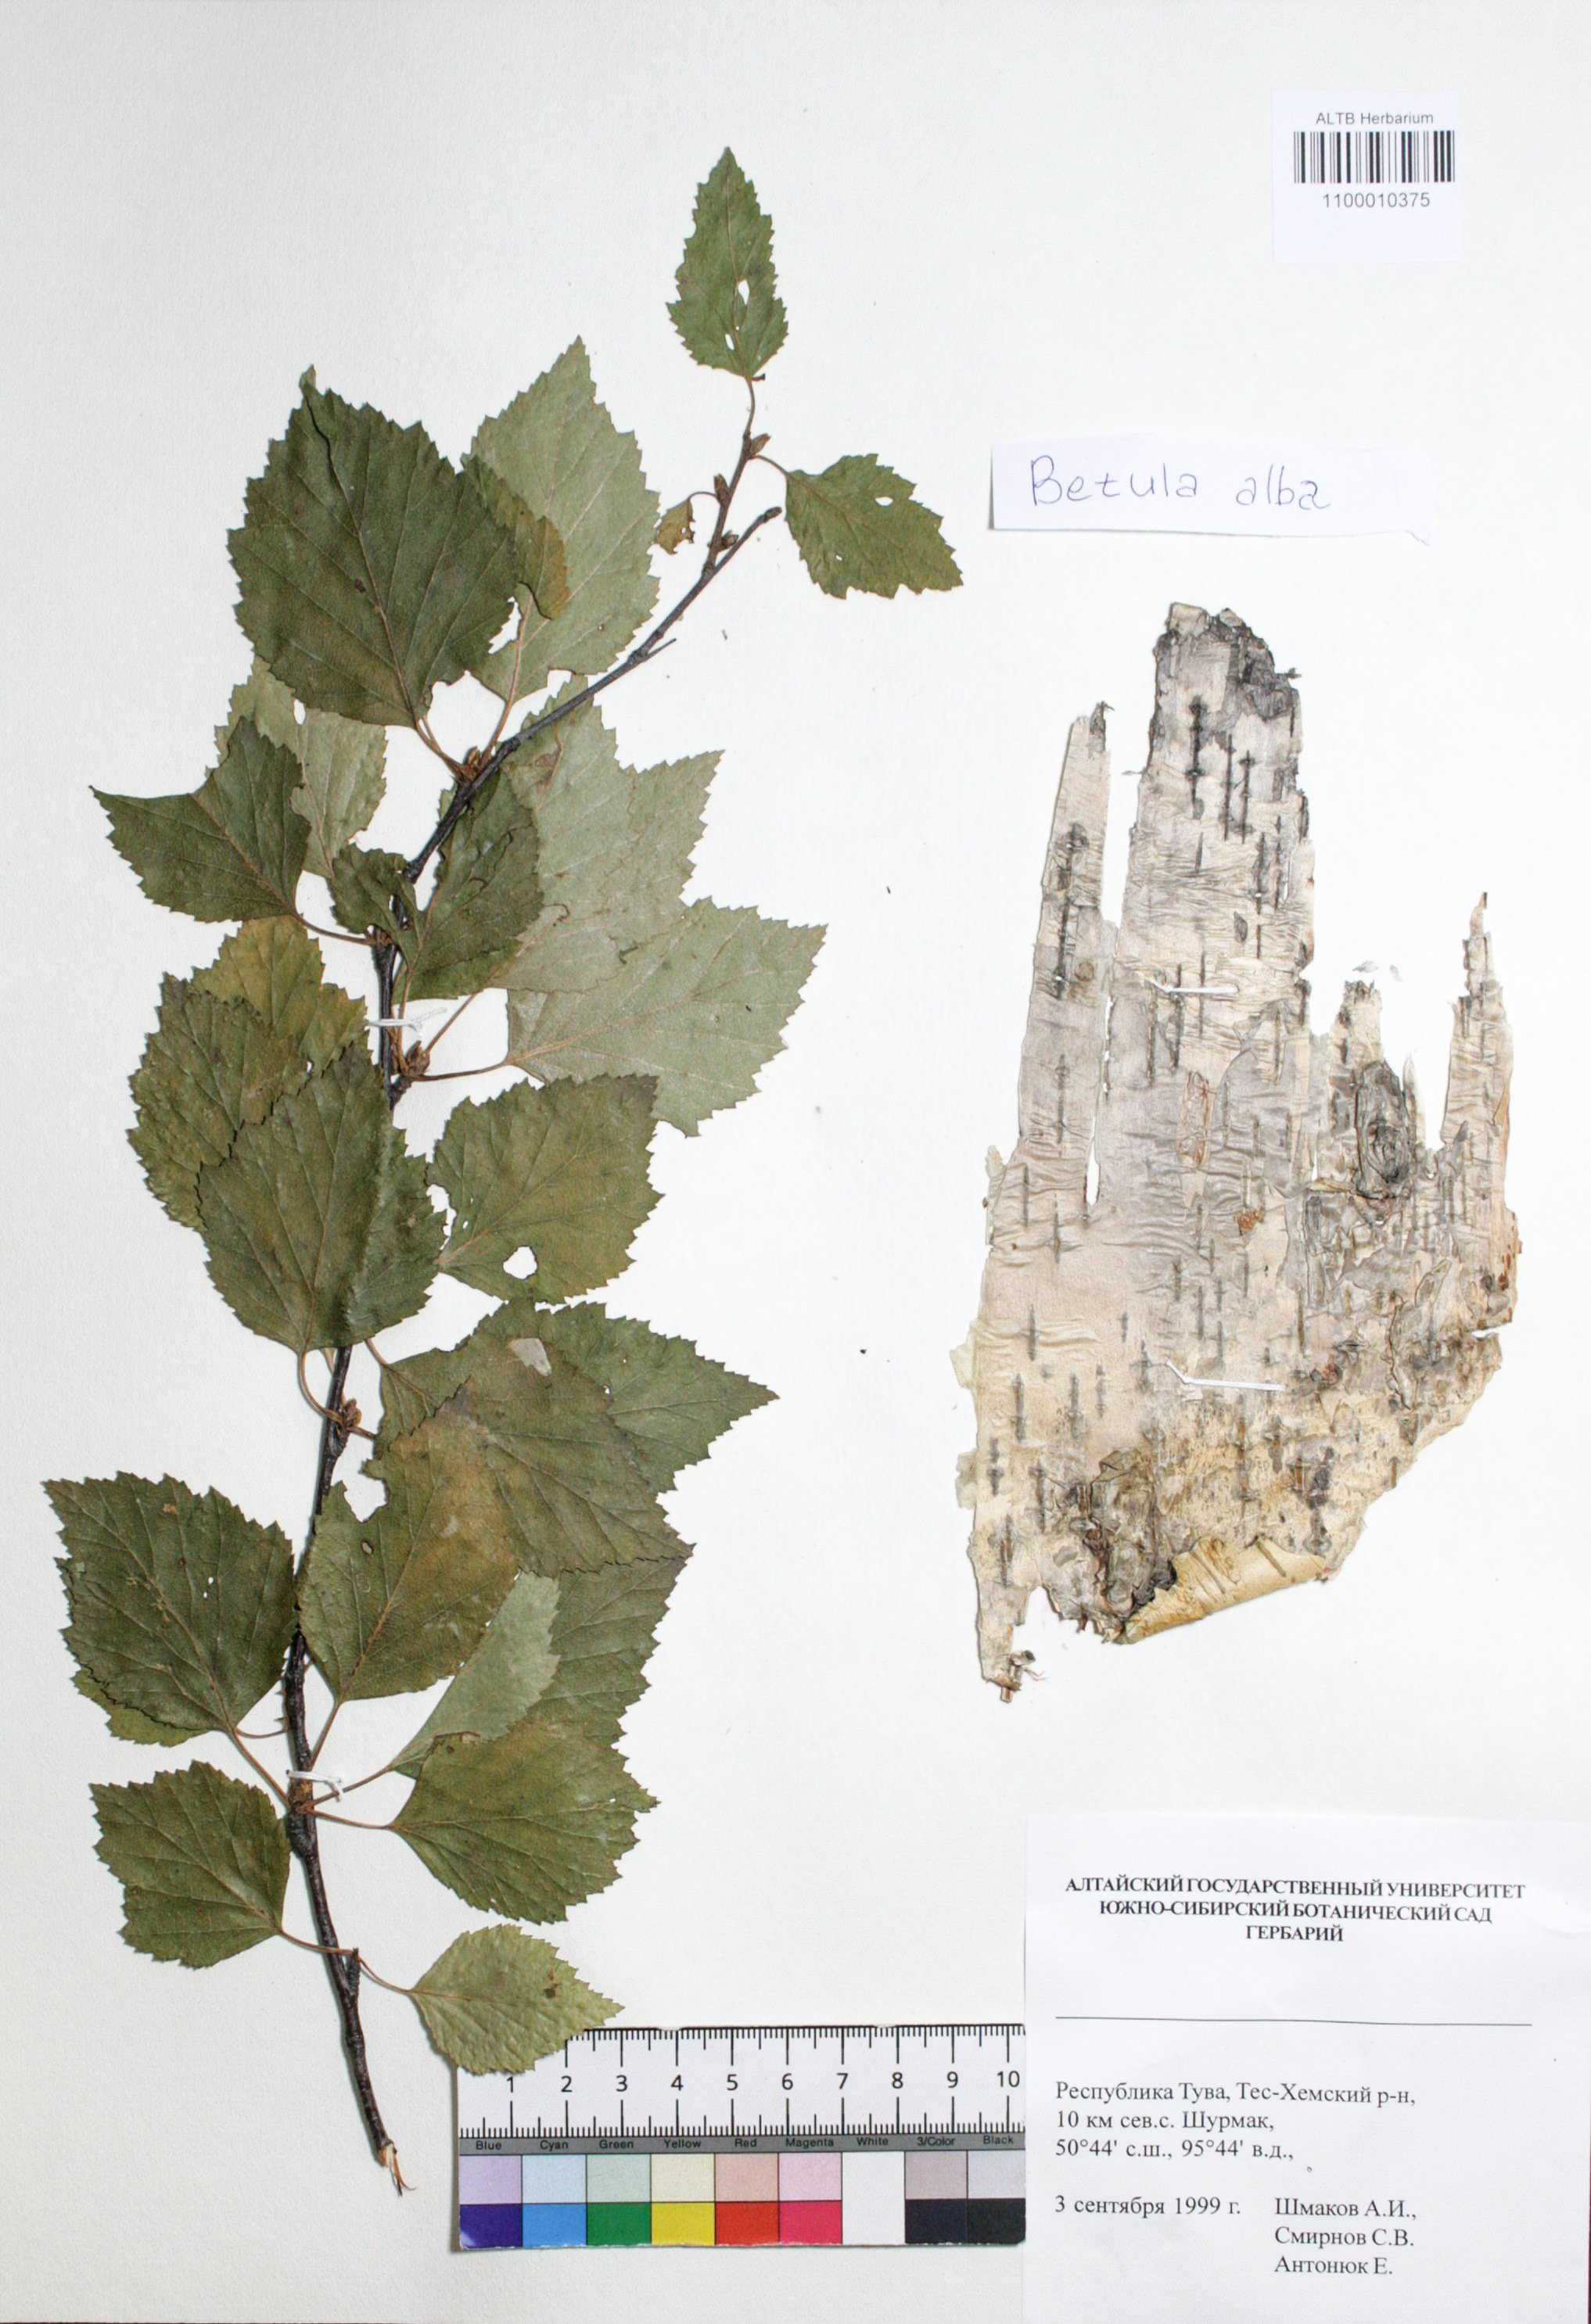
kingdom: Plantae
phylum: Tracheophyta
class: Magnoliopsida
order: Fagales
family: Betulaceae
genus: Betula
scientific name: Betula pubescens
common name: Downy birch
